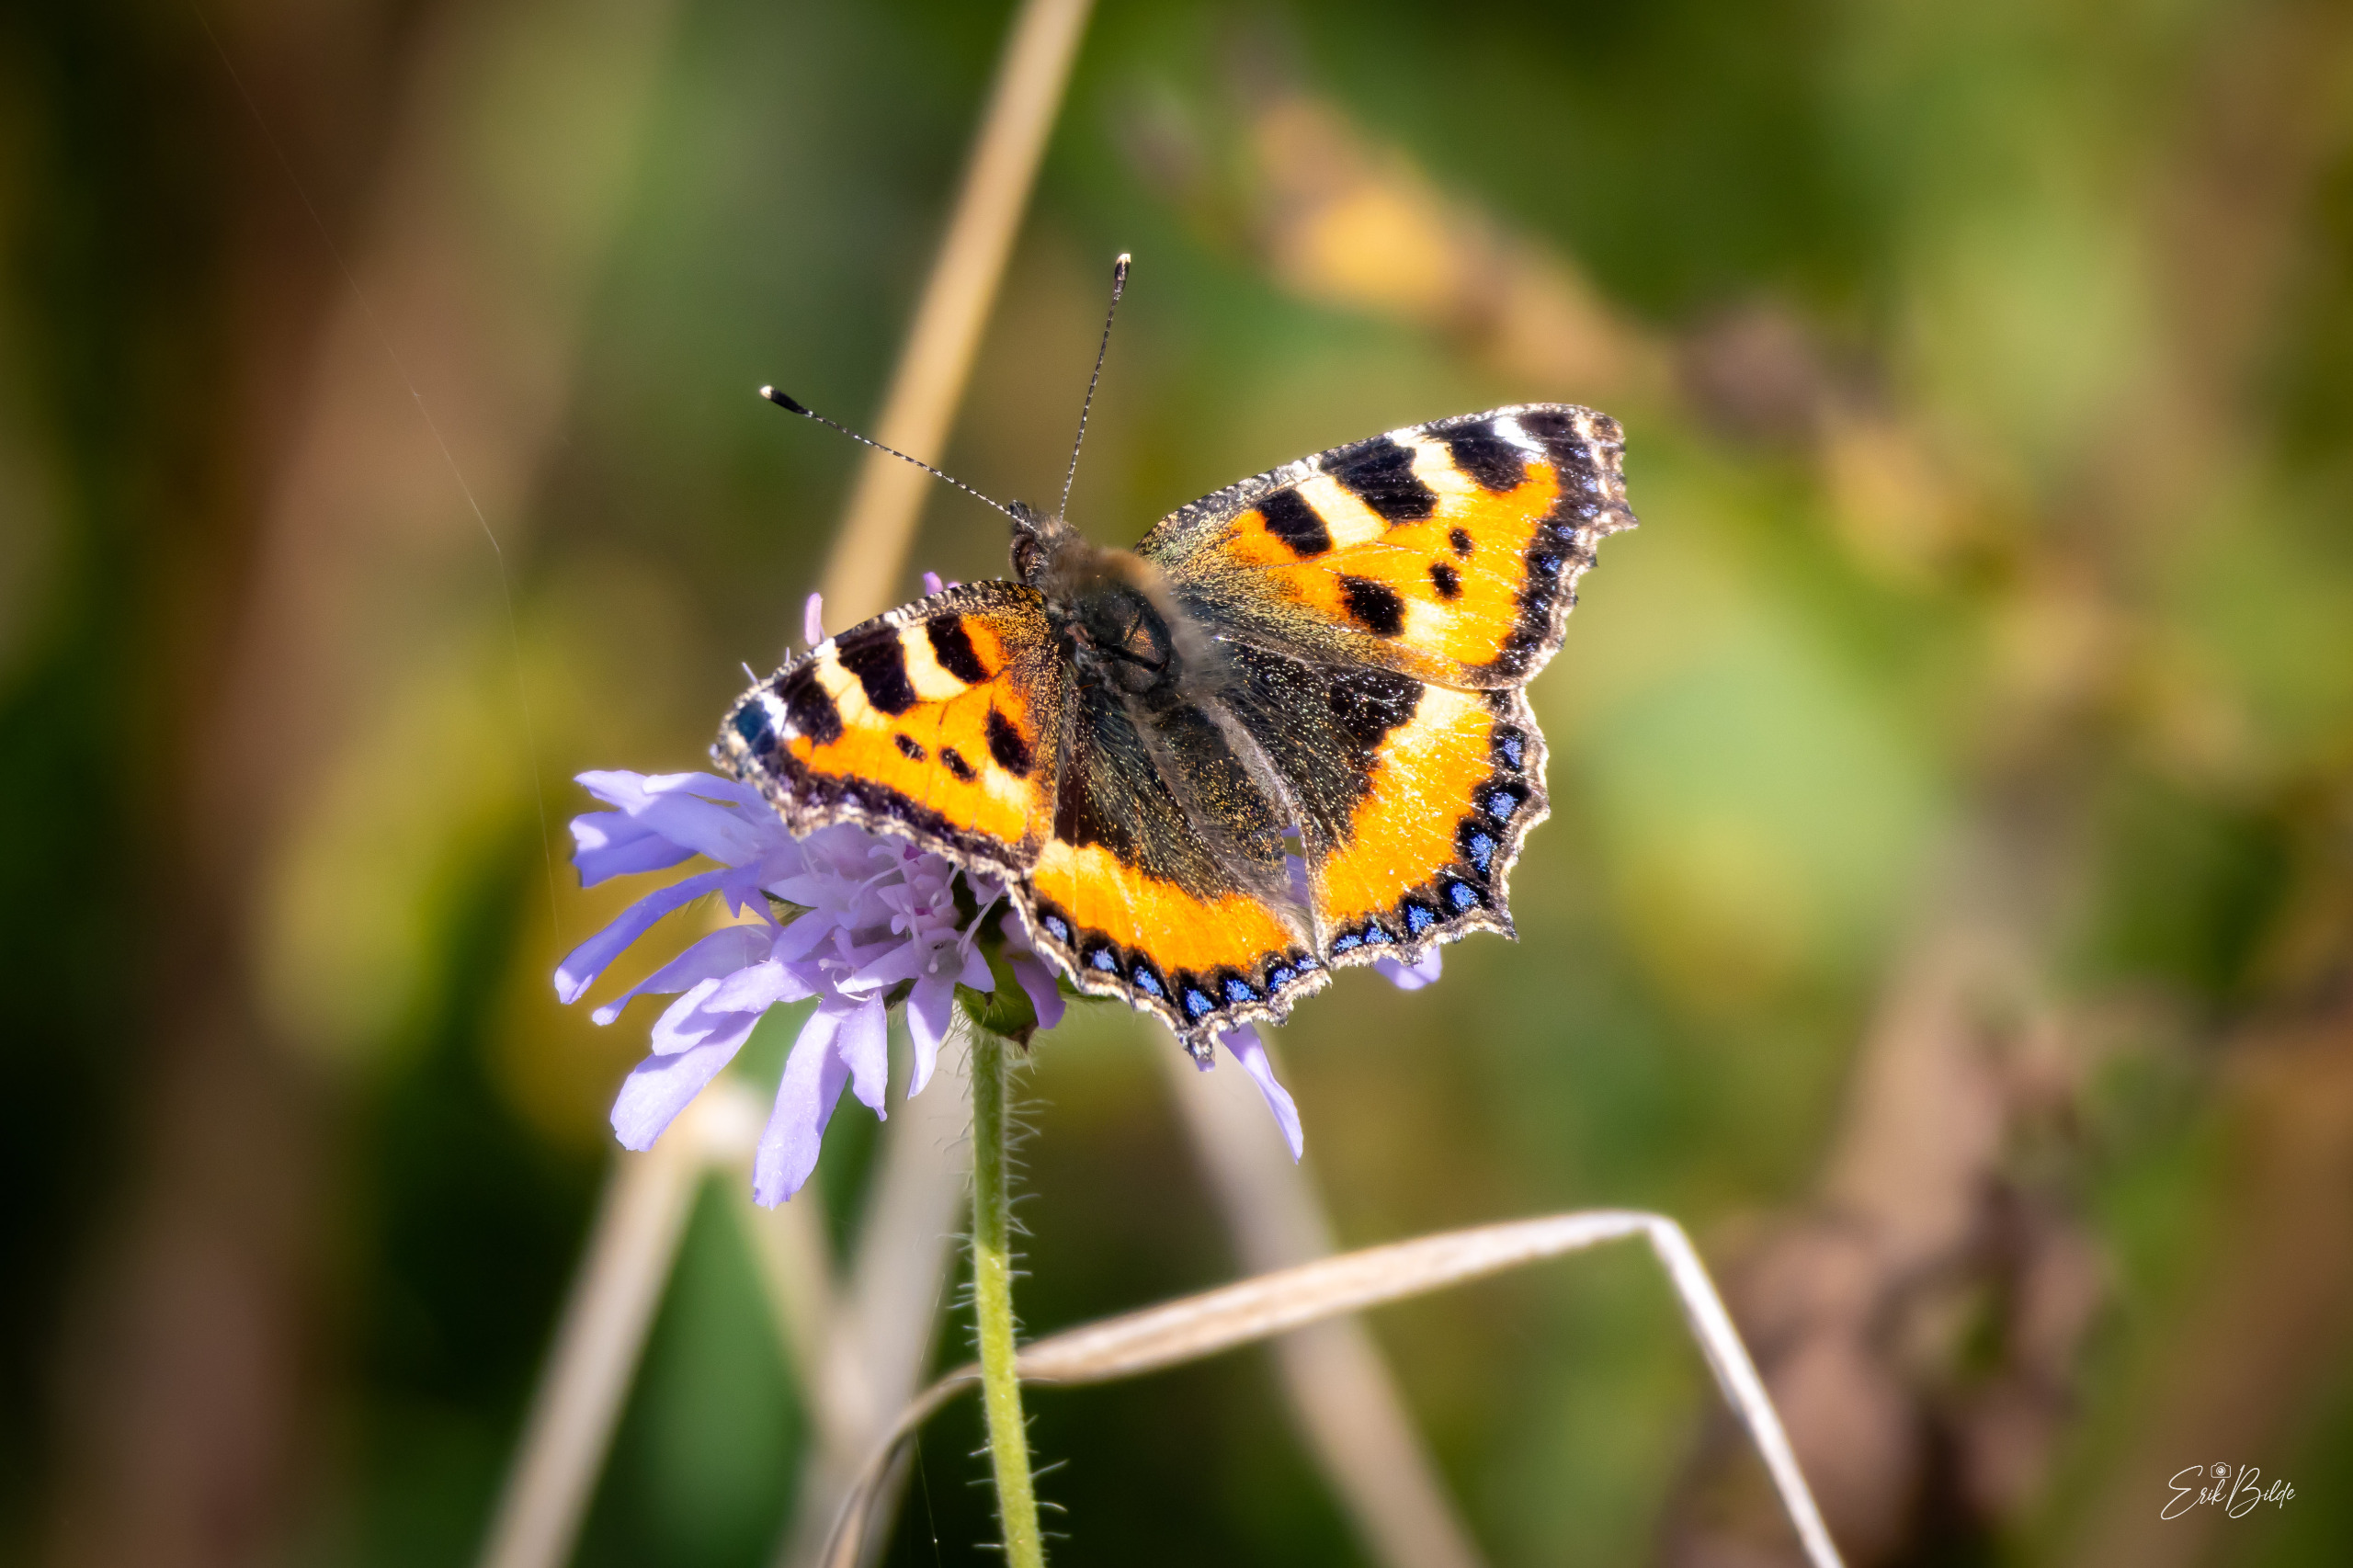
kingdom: Animalia
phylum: Arthropoda
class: Insecta
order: Lepidoptera
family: Nymphalidae
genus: Aglais
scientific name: Aglais urticae
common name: Nældens takvinge
